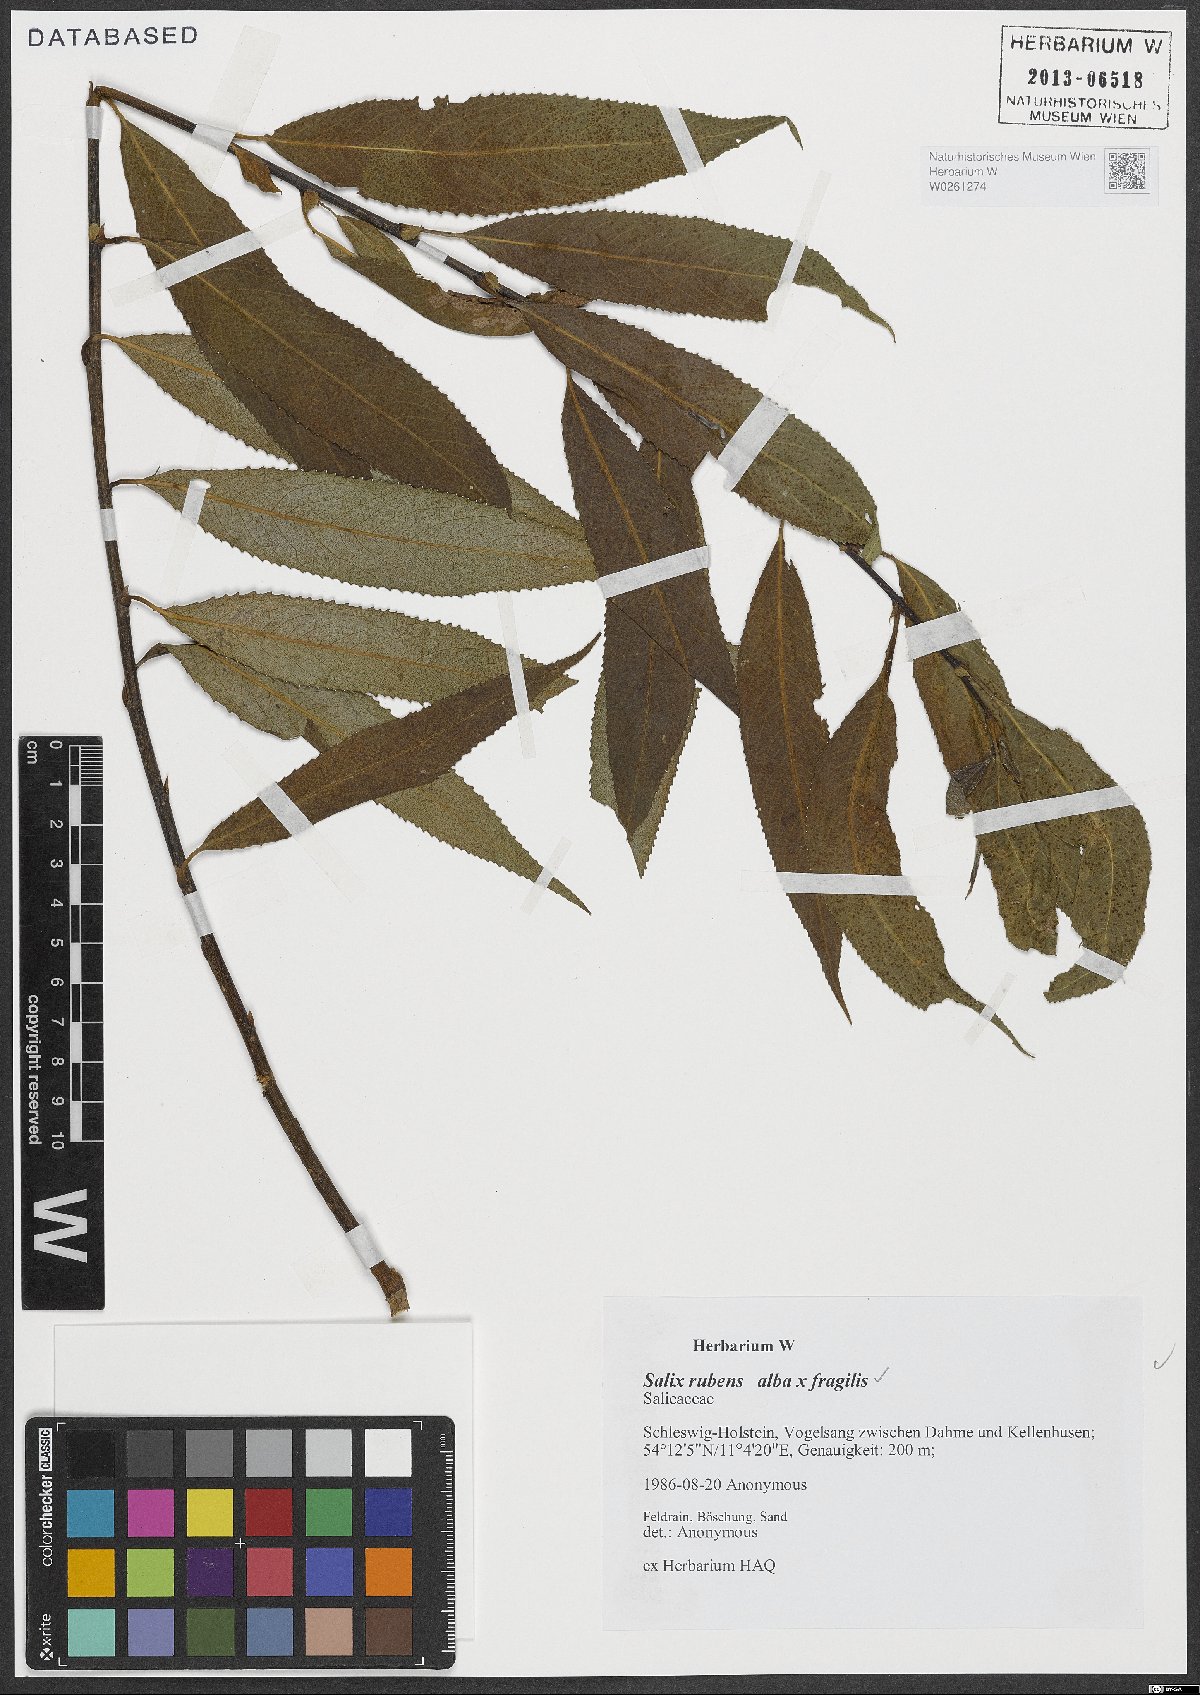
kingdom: Plantae
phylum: Tracheophyta
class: Magnoliopsida
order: Malpighiales
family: Salicaceae
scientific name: Salicaceae
